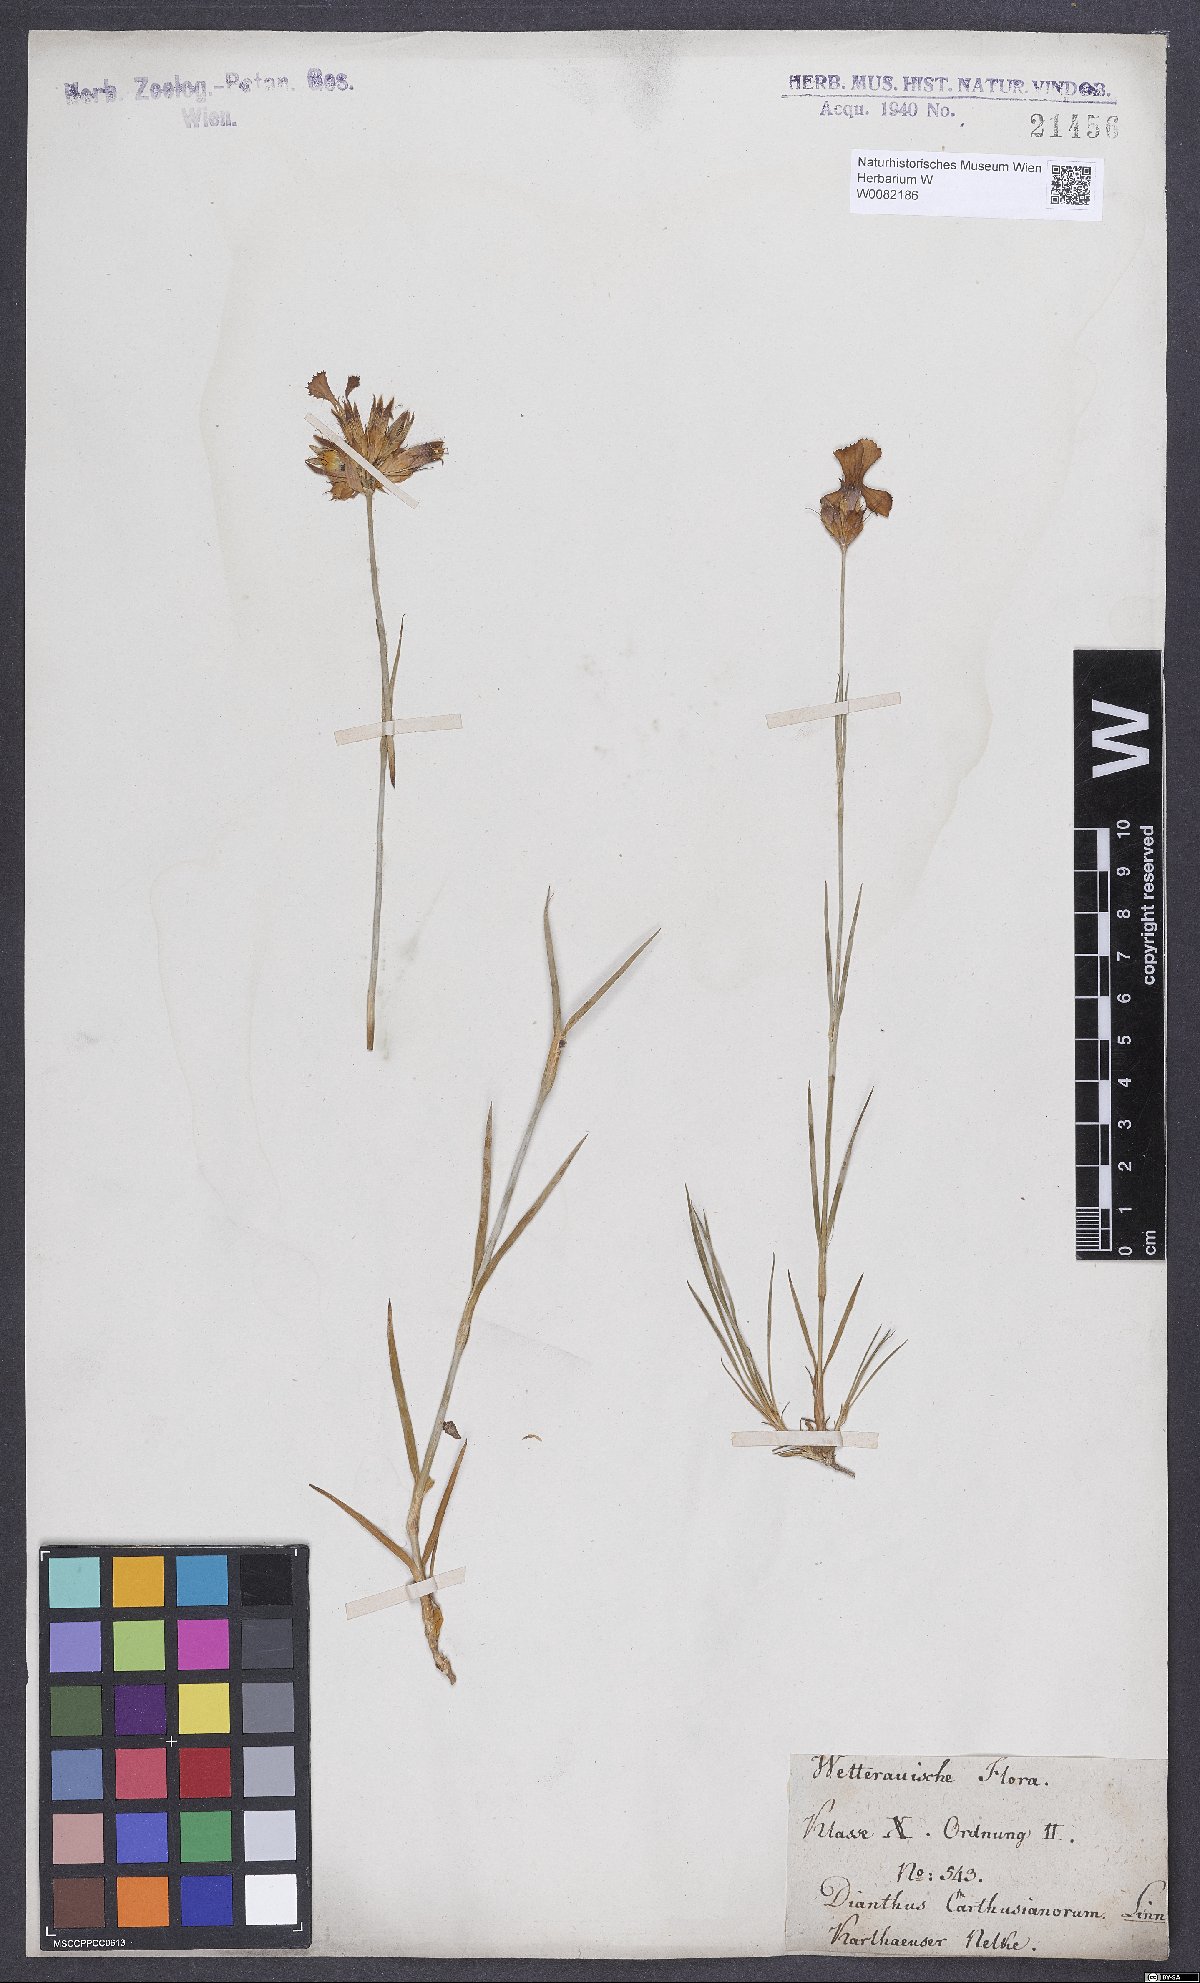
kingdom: Plantae
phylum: Tracheophyta
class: Magnoliopsida
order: Caryophyllales
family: Caryophyllaceae
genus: Dianthus
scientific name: Dianthus carthusianorum
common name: Carthusian pink
